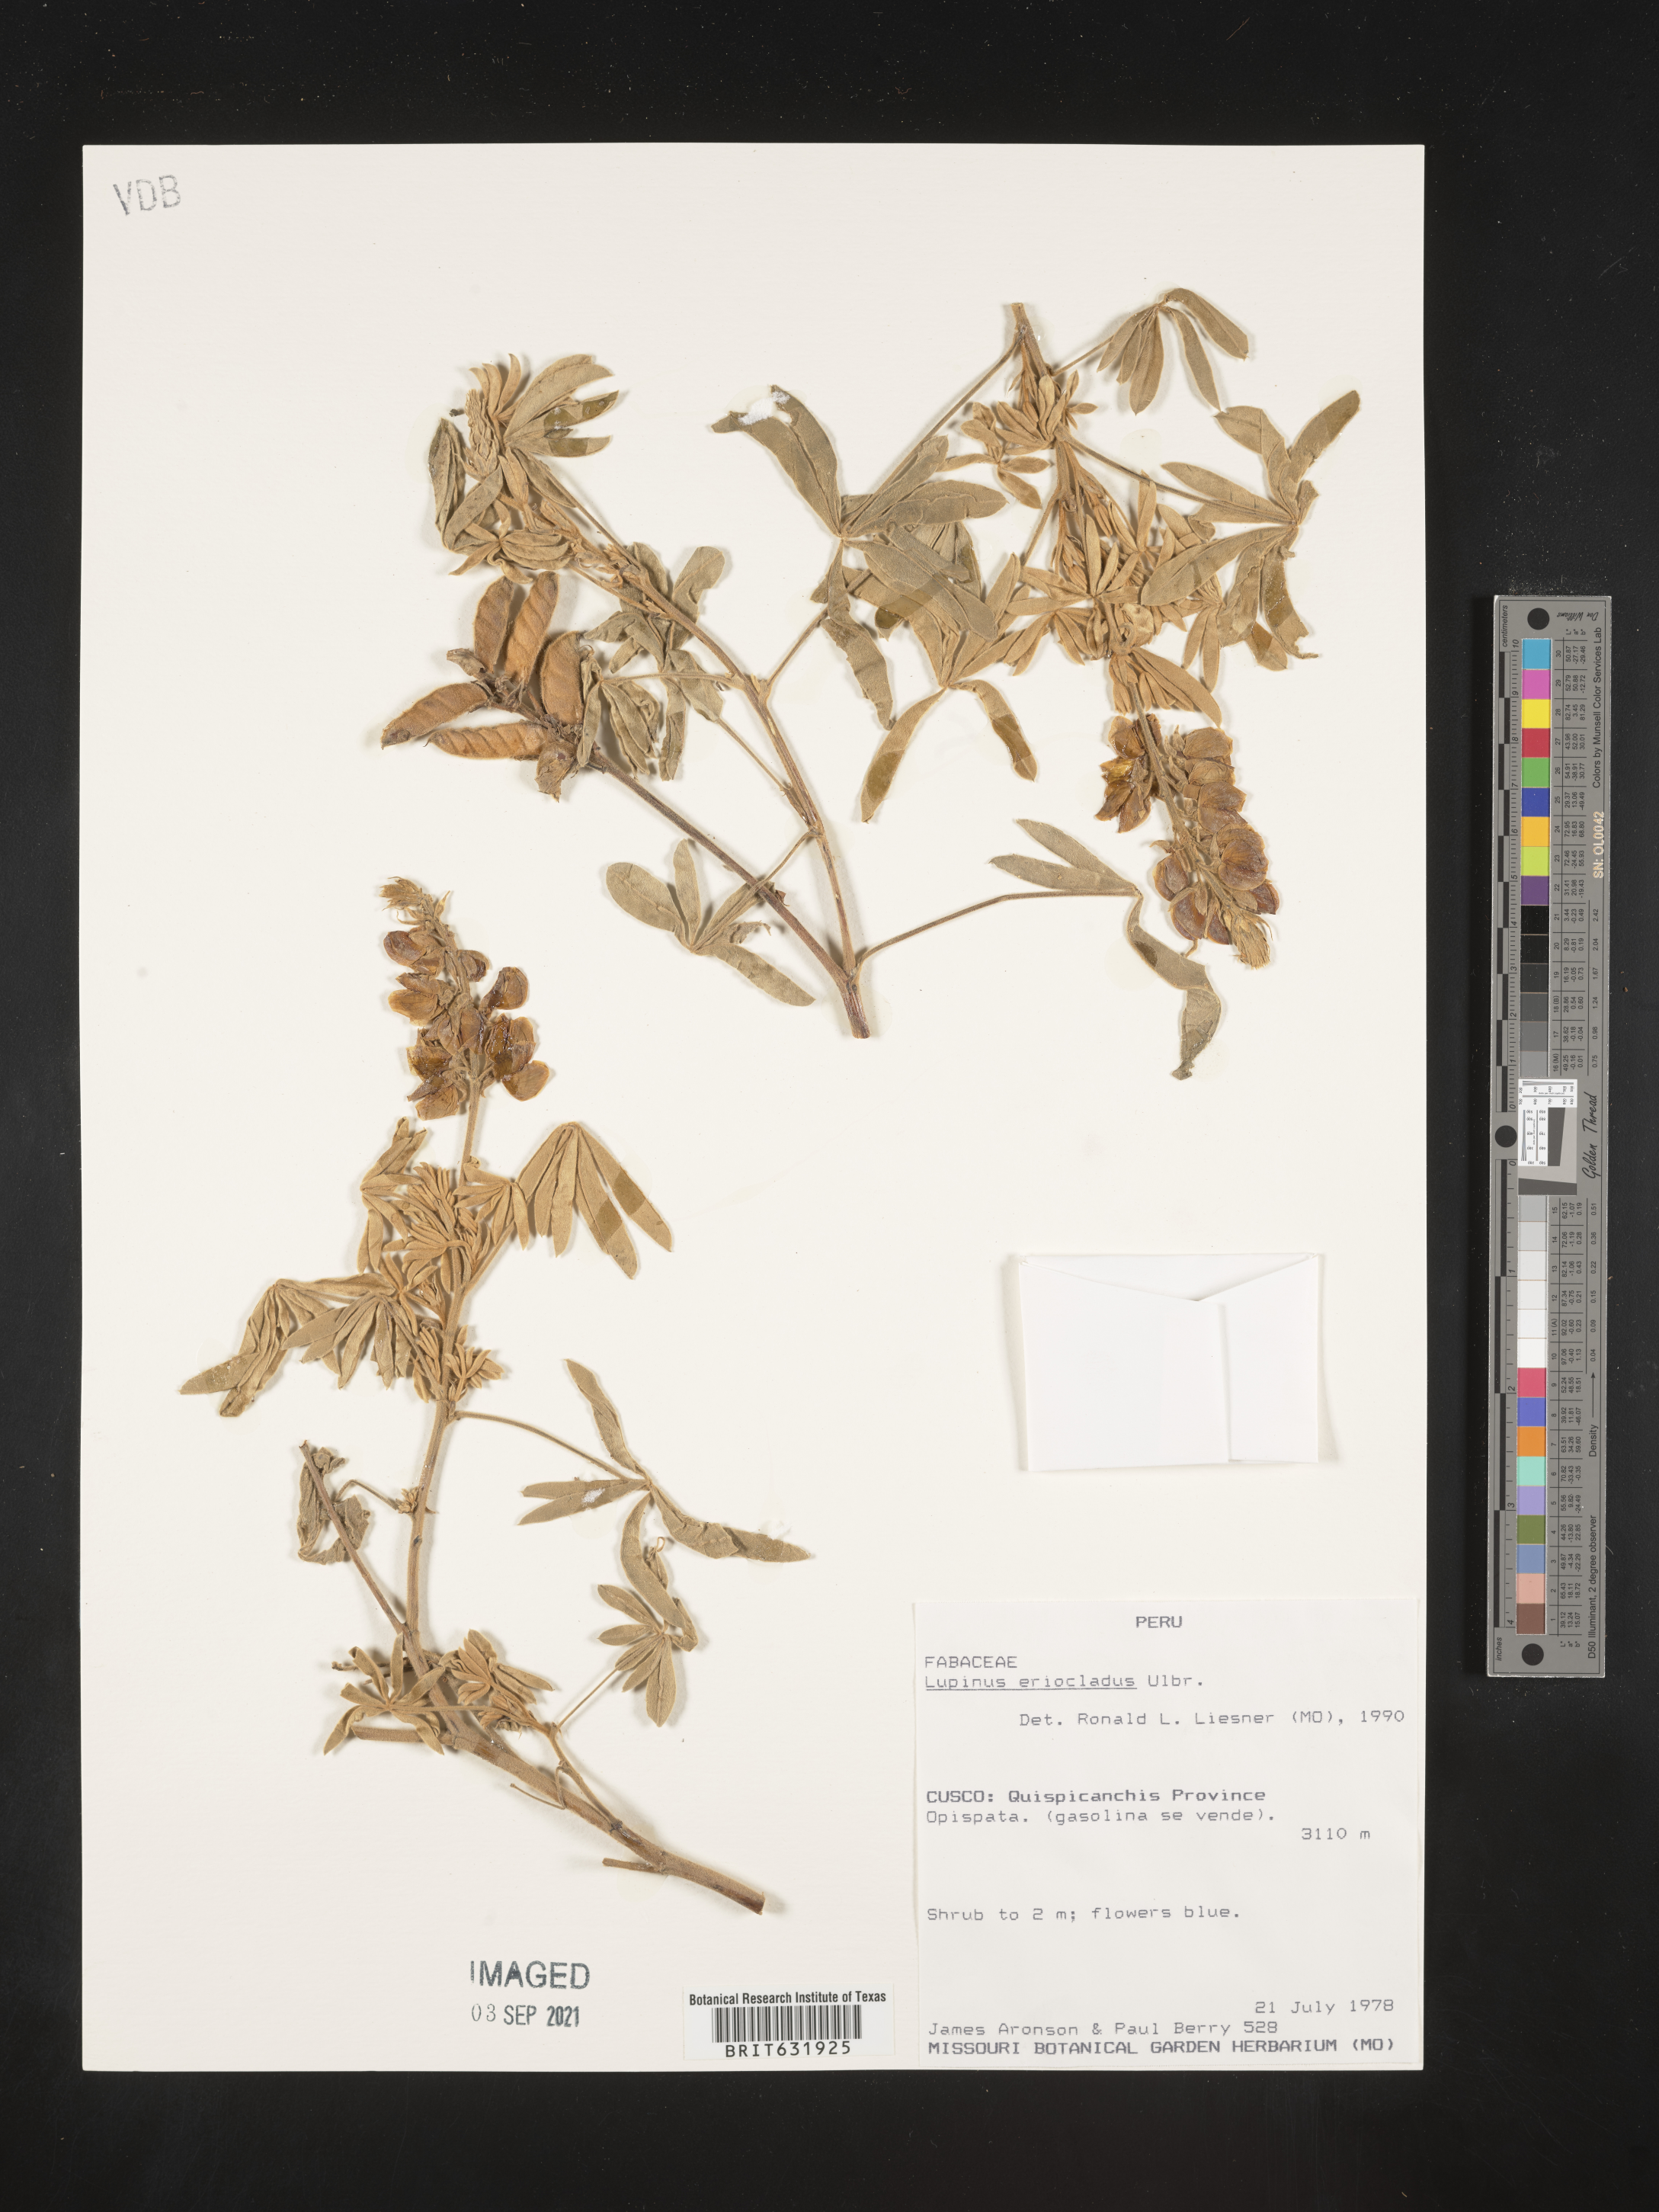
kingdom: Plantae
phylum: Tracheophyta
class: Magnoliopsida
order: Fabales
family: Fabaceae
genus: Lupinus
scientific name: Lupinus
